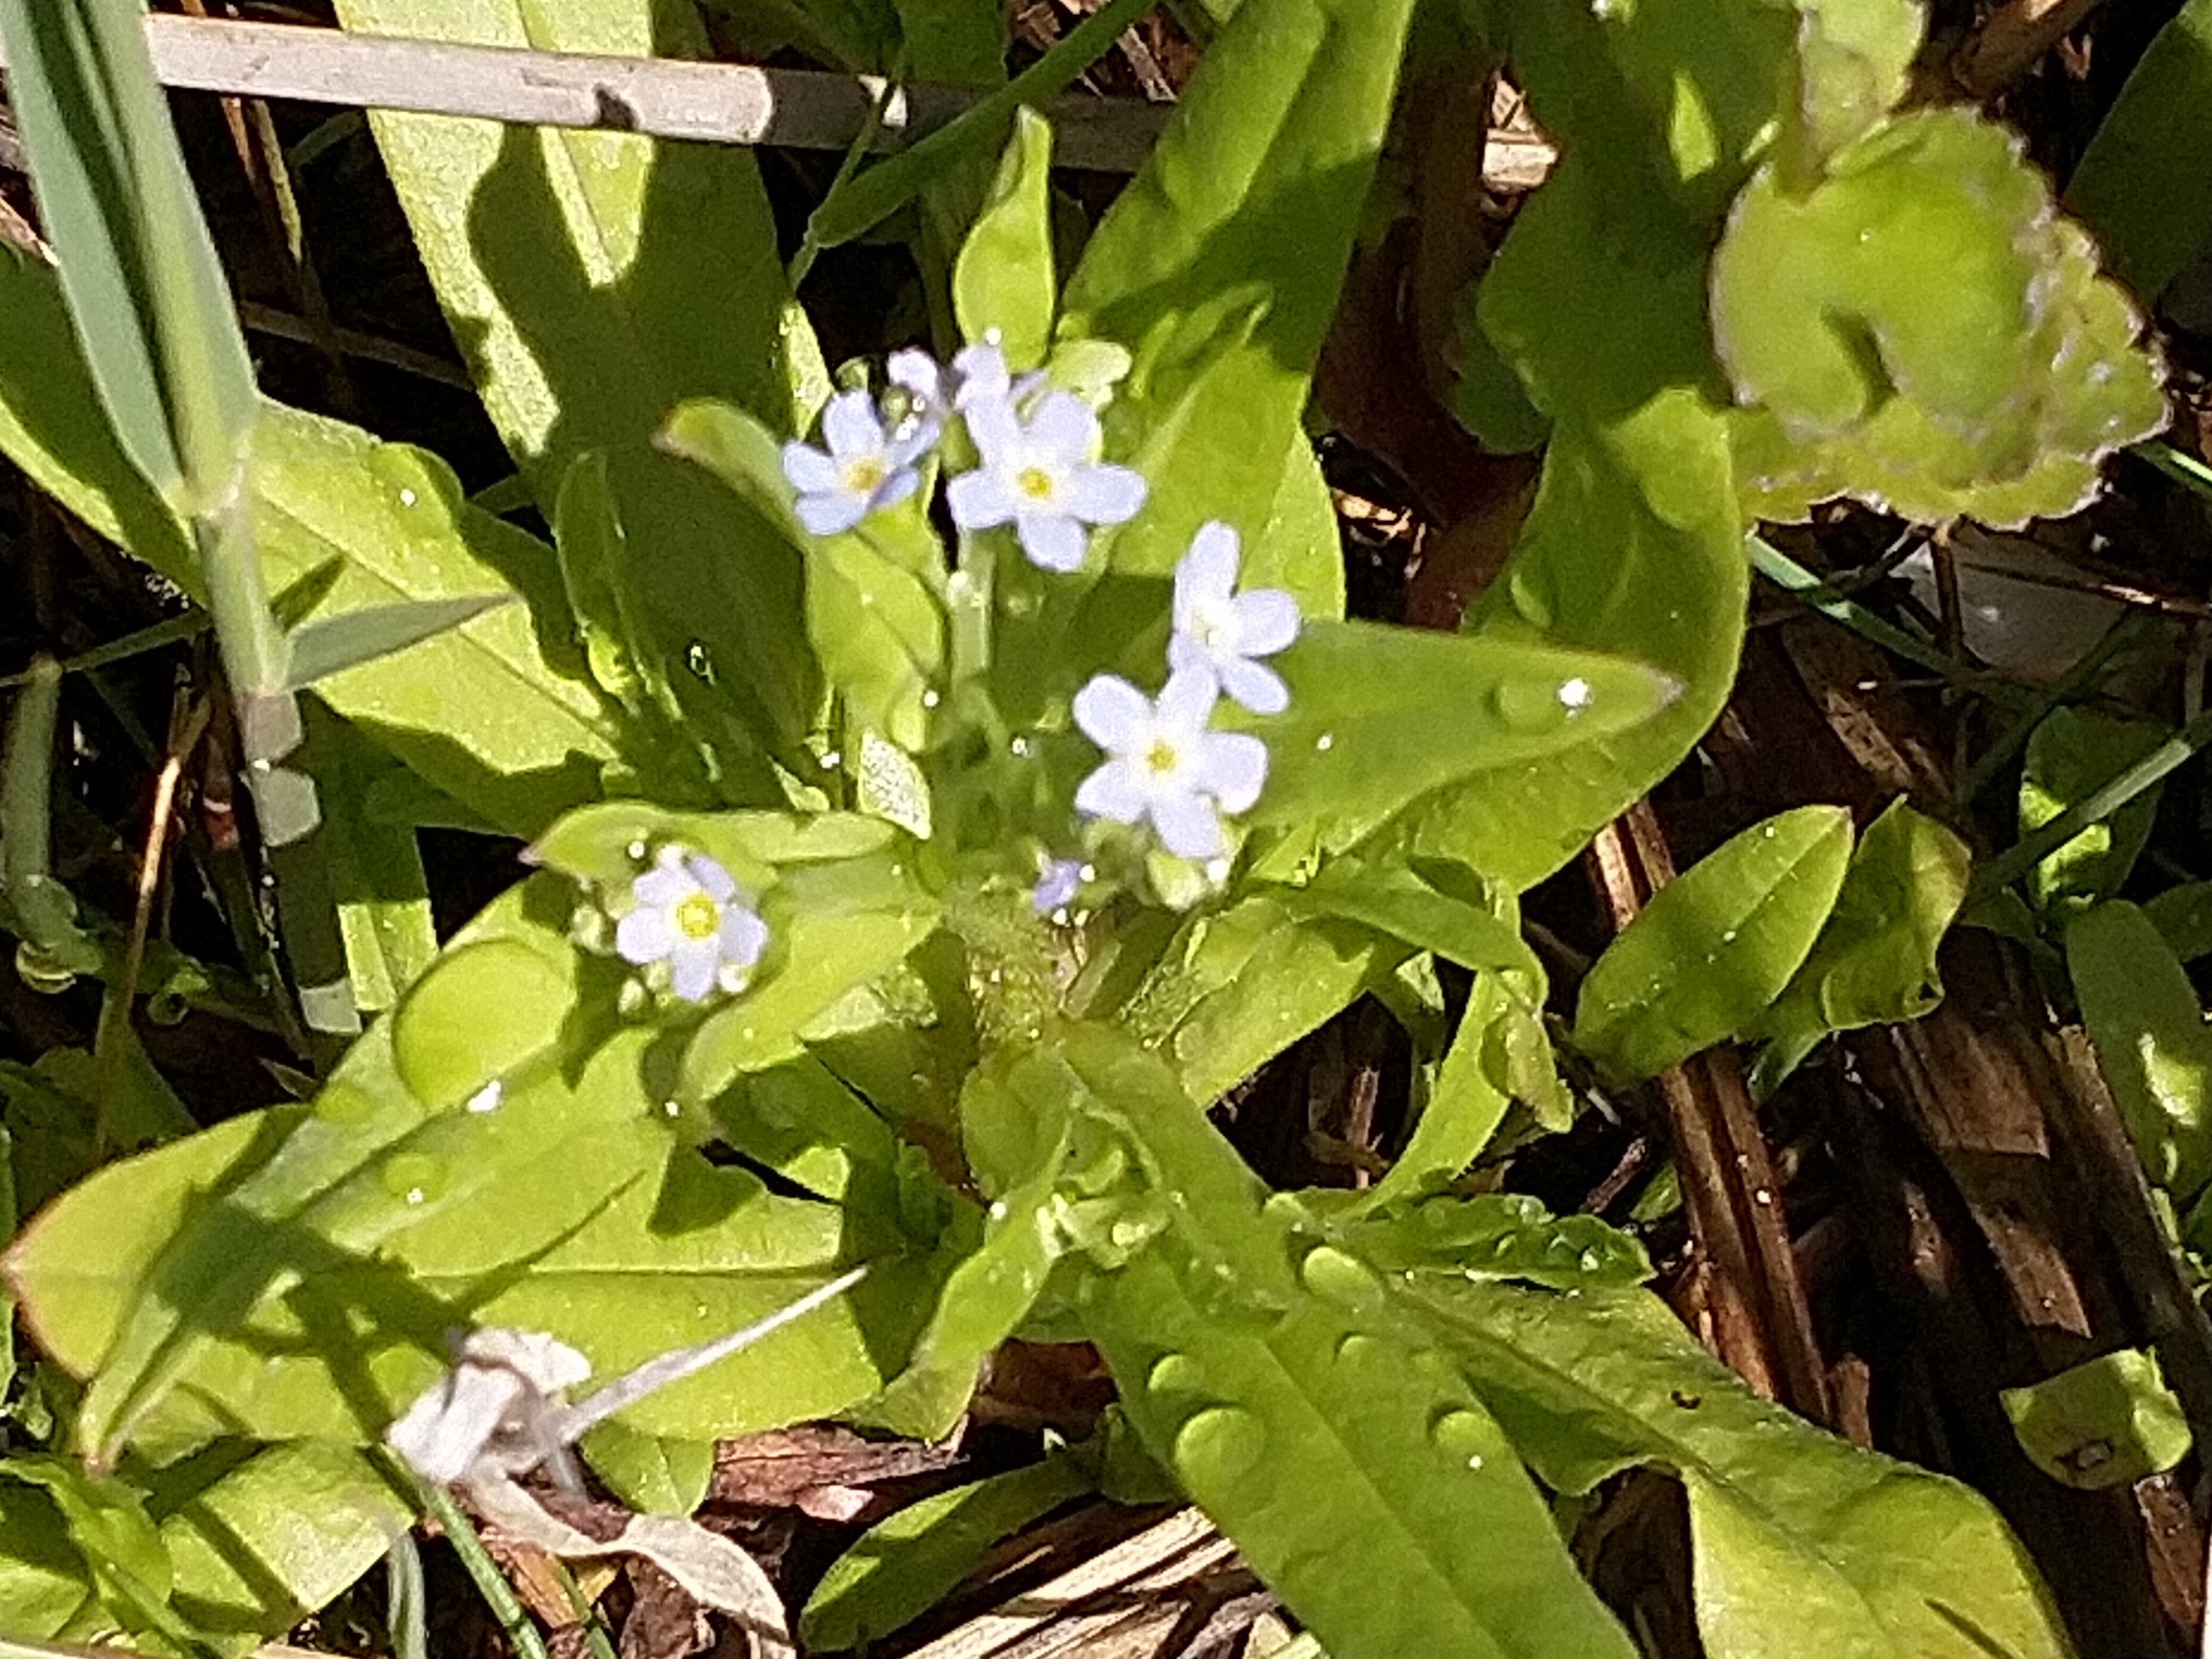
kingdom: Plantae
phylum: Tracheophyta
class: Magnoliopsida
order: Boraginales
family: Boraginaceae
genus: Myosotis
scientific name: Myosotis laxa
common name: Sump-forglemmigej
